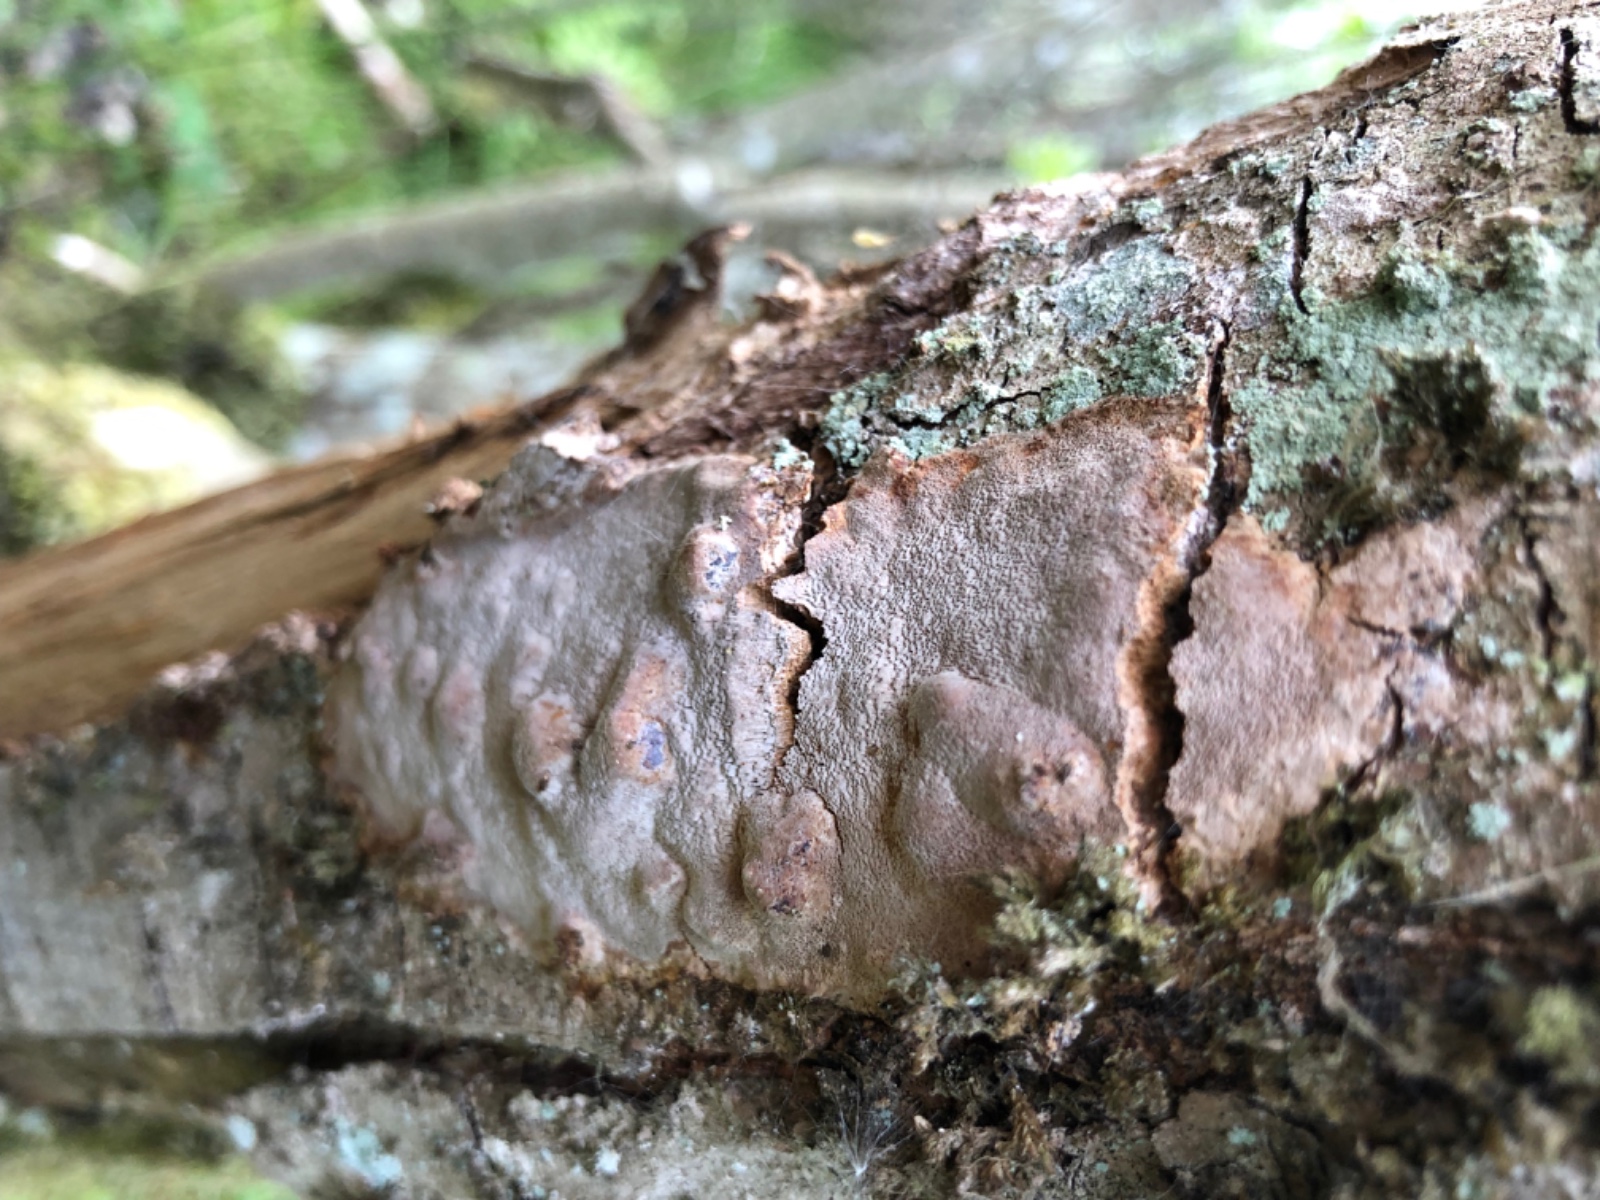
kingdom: Fungi
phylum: Basidiomycota
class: Agaricomycetes
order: Hymenochaetales
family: Hymenochaetaceae
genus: Fomitiporia
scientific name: Fomitiporia punctata
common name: pude-ildporesvamp
